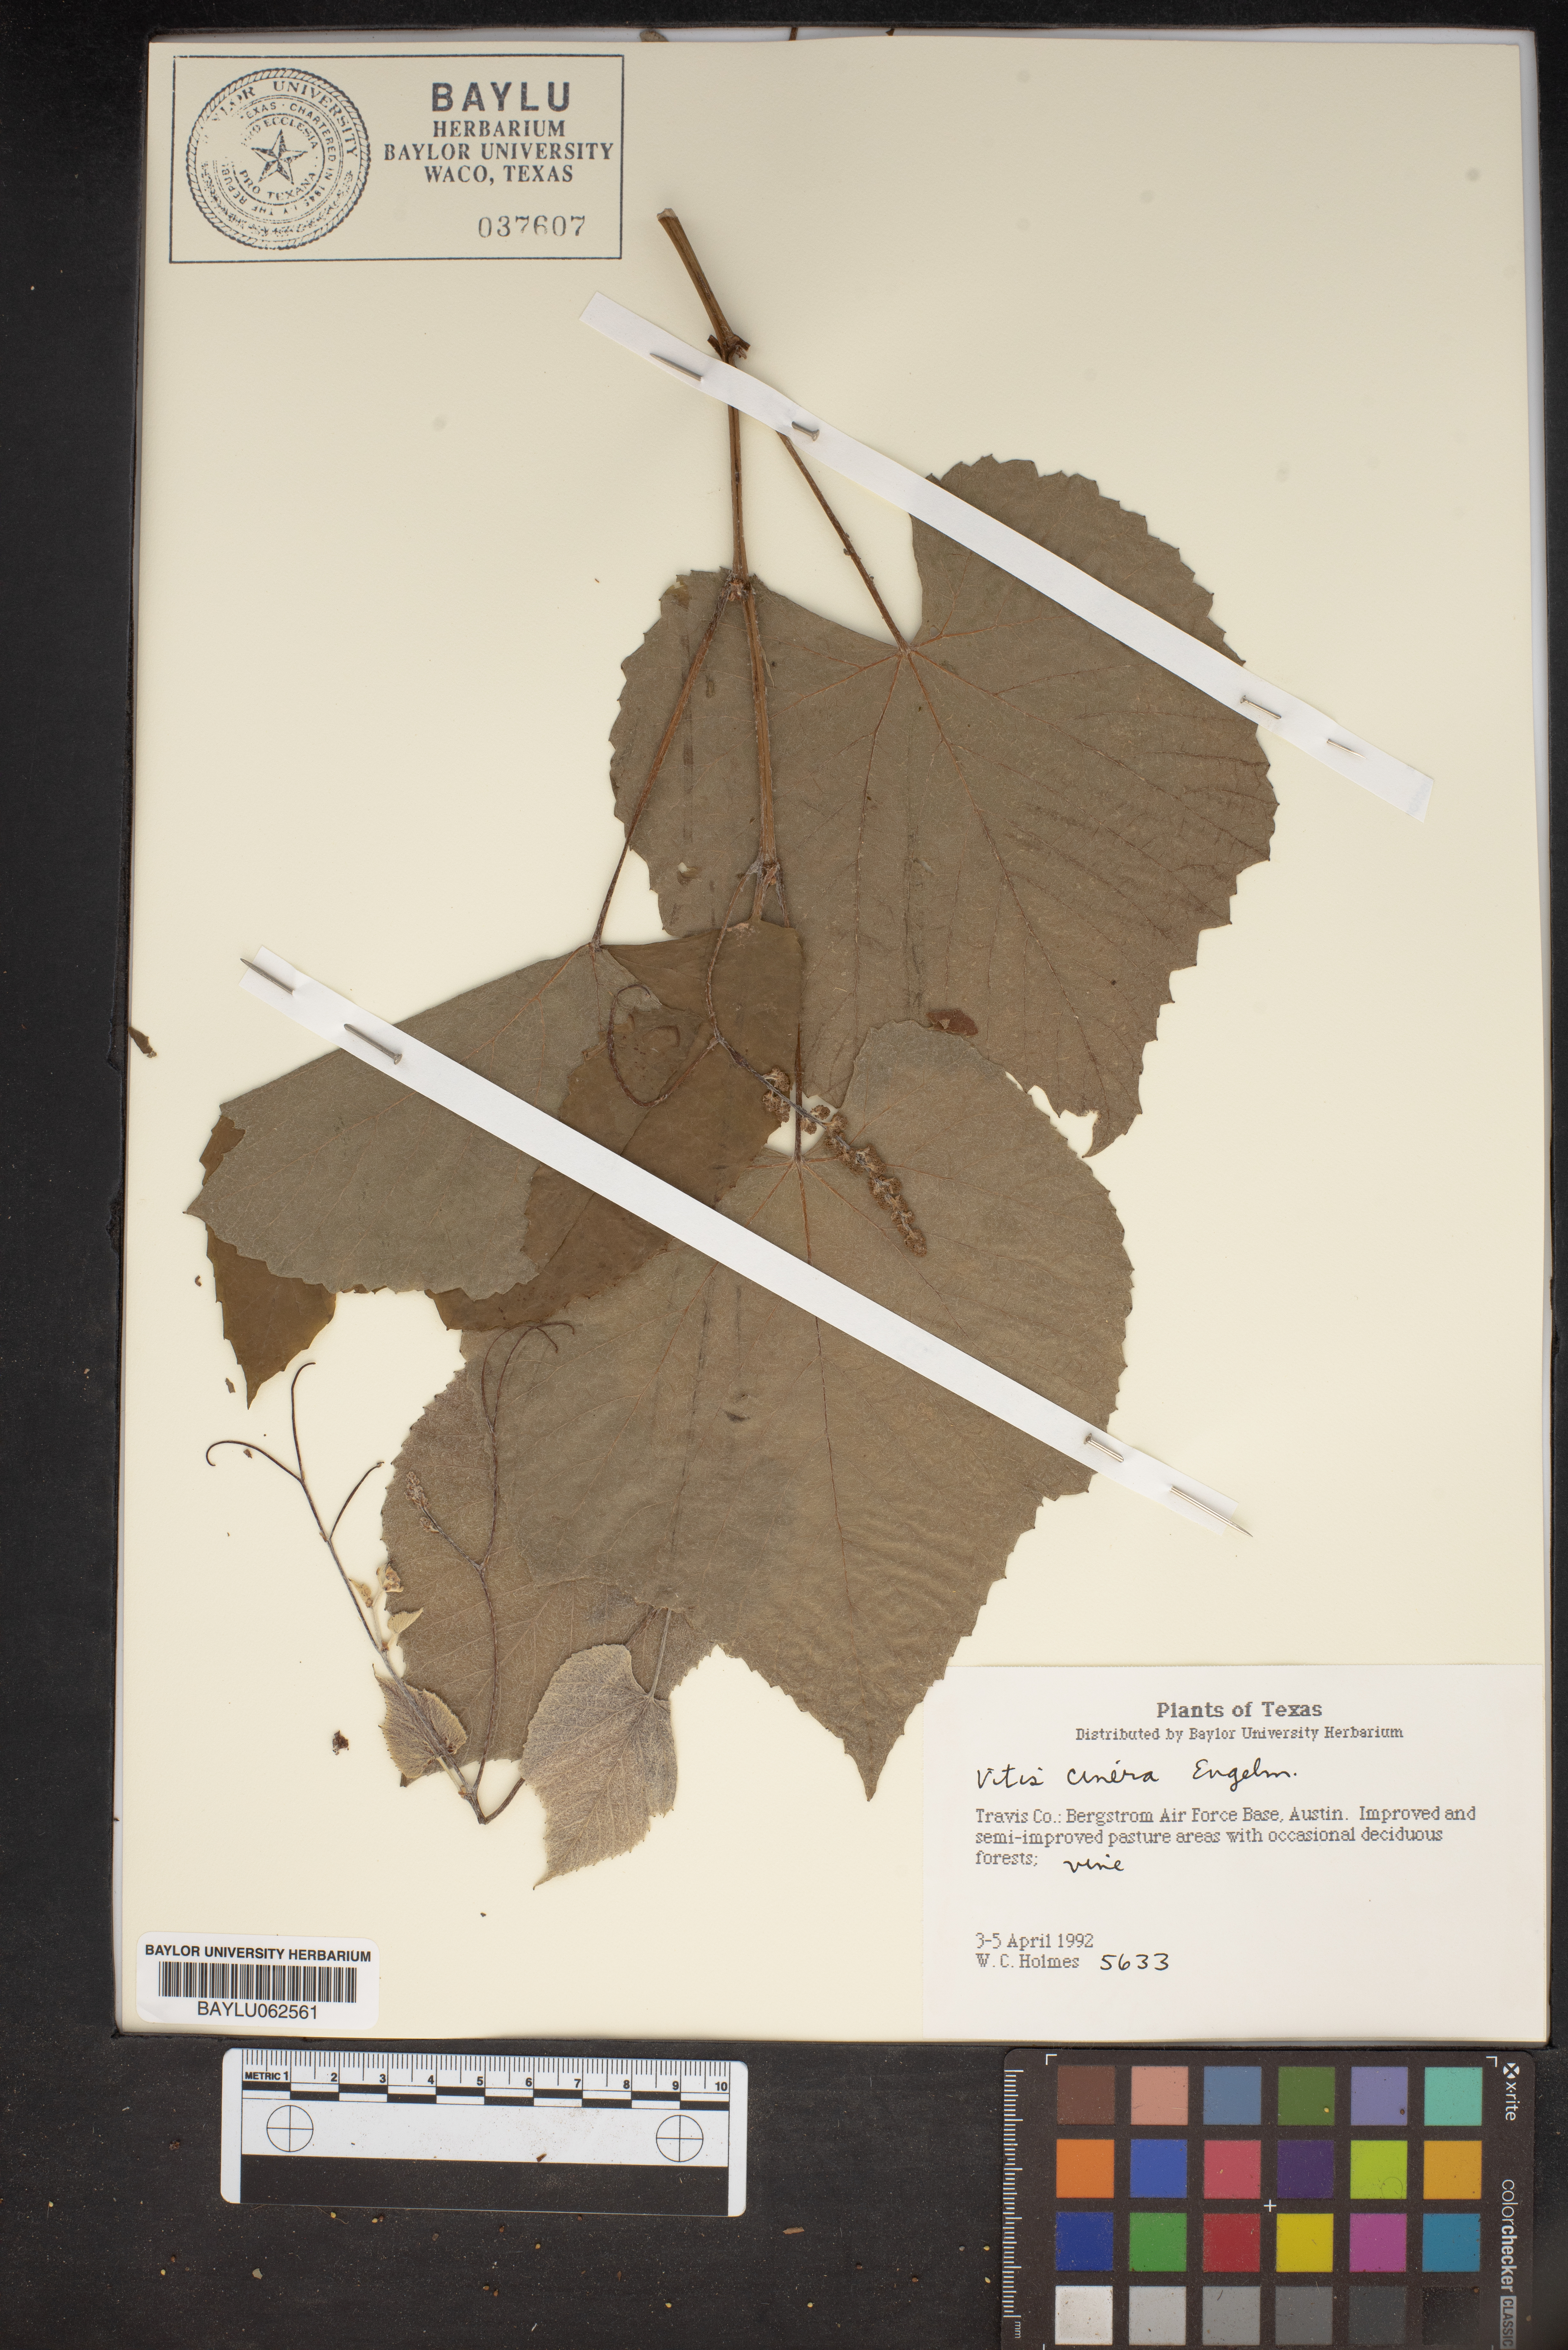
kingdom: Plantae
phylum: Tracheophyta
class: Magnoliopsida
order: Vitales
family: Vitaceae
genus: Vitis
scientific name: Vitis cinerea
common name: Ashy grape
